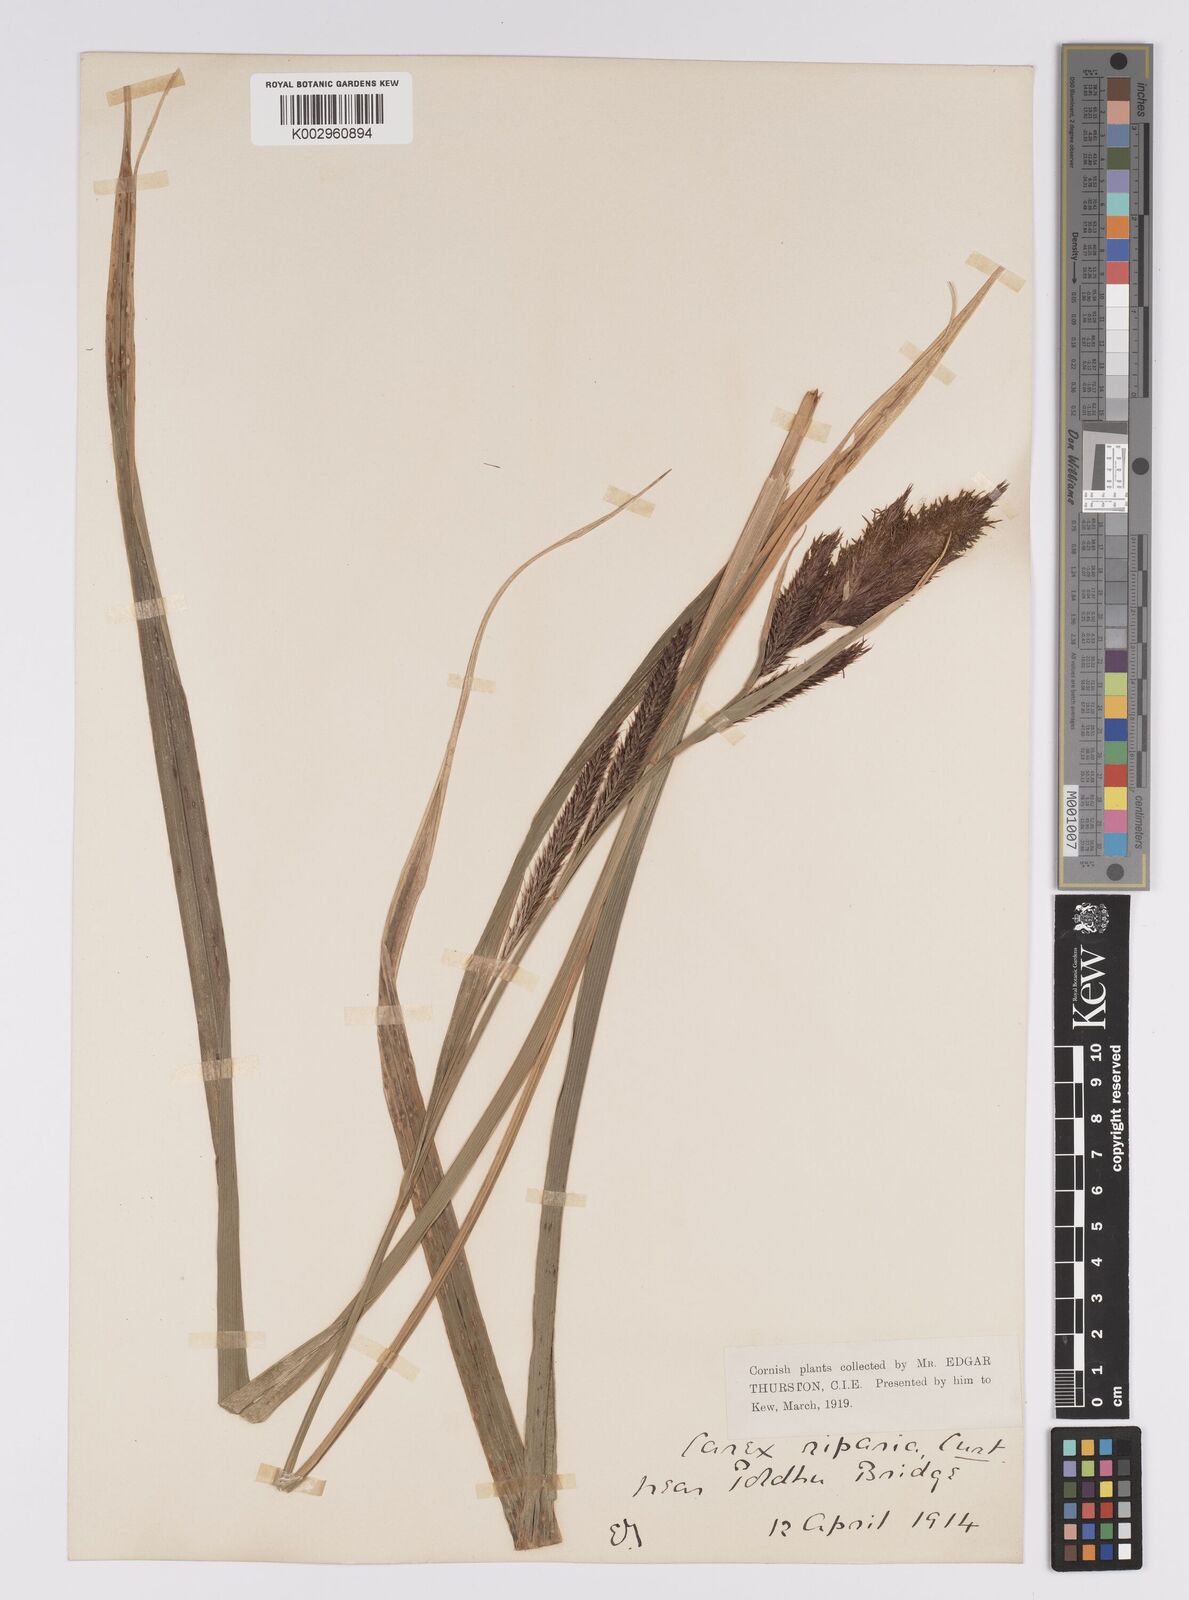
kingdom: Plantae
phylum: Tracheophyta
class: Liliopsida
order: Poales
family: Cyperaceae
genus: Carex
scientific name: Carex riparia
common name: Greater pond-sedge
